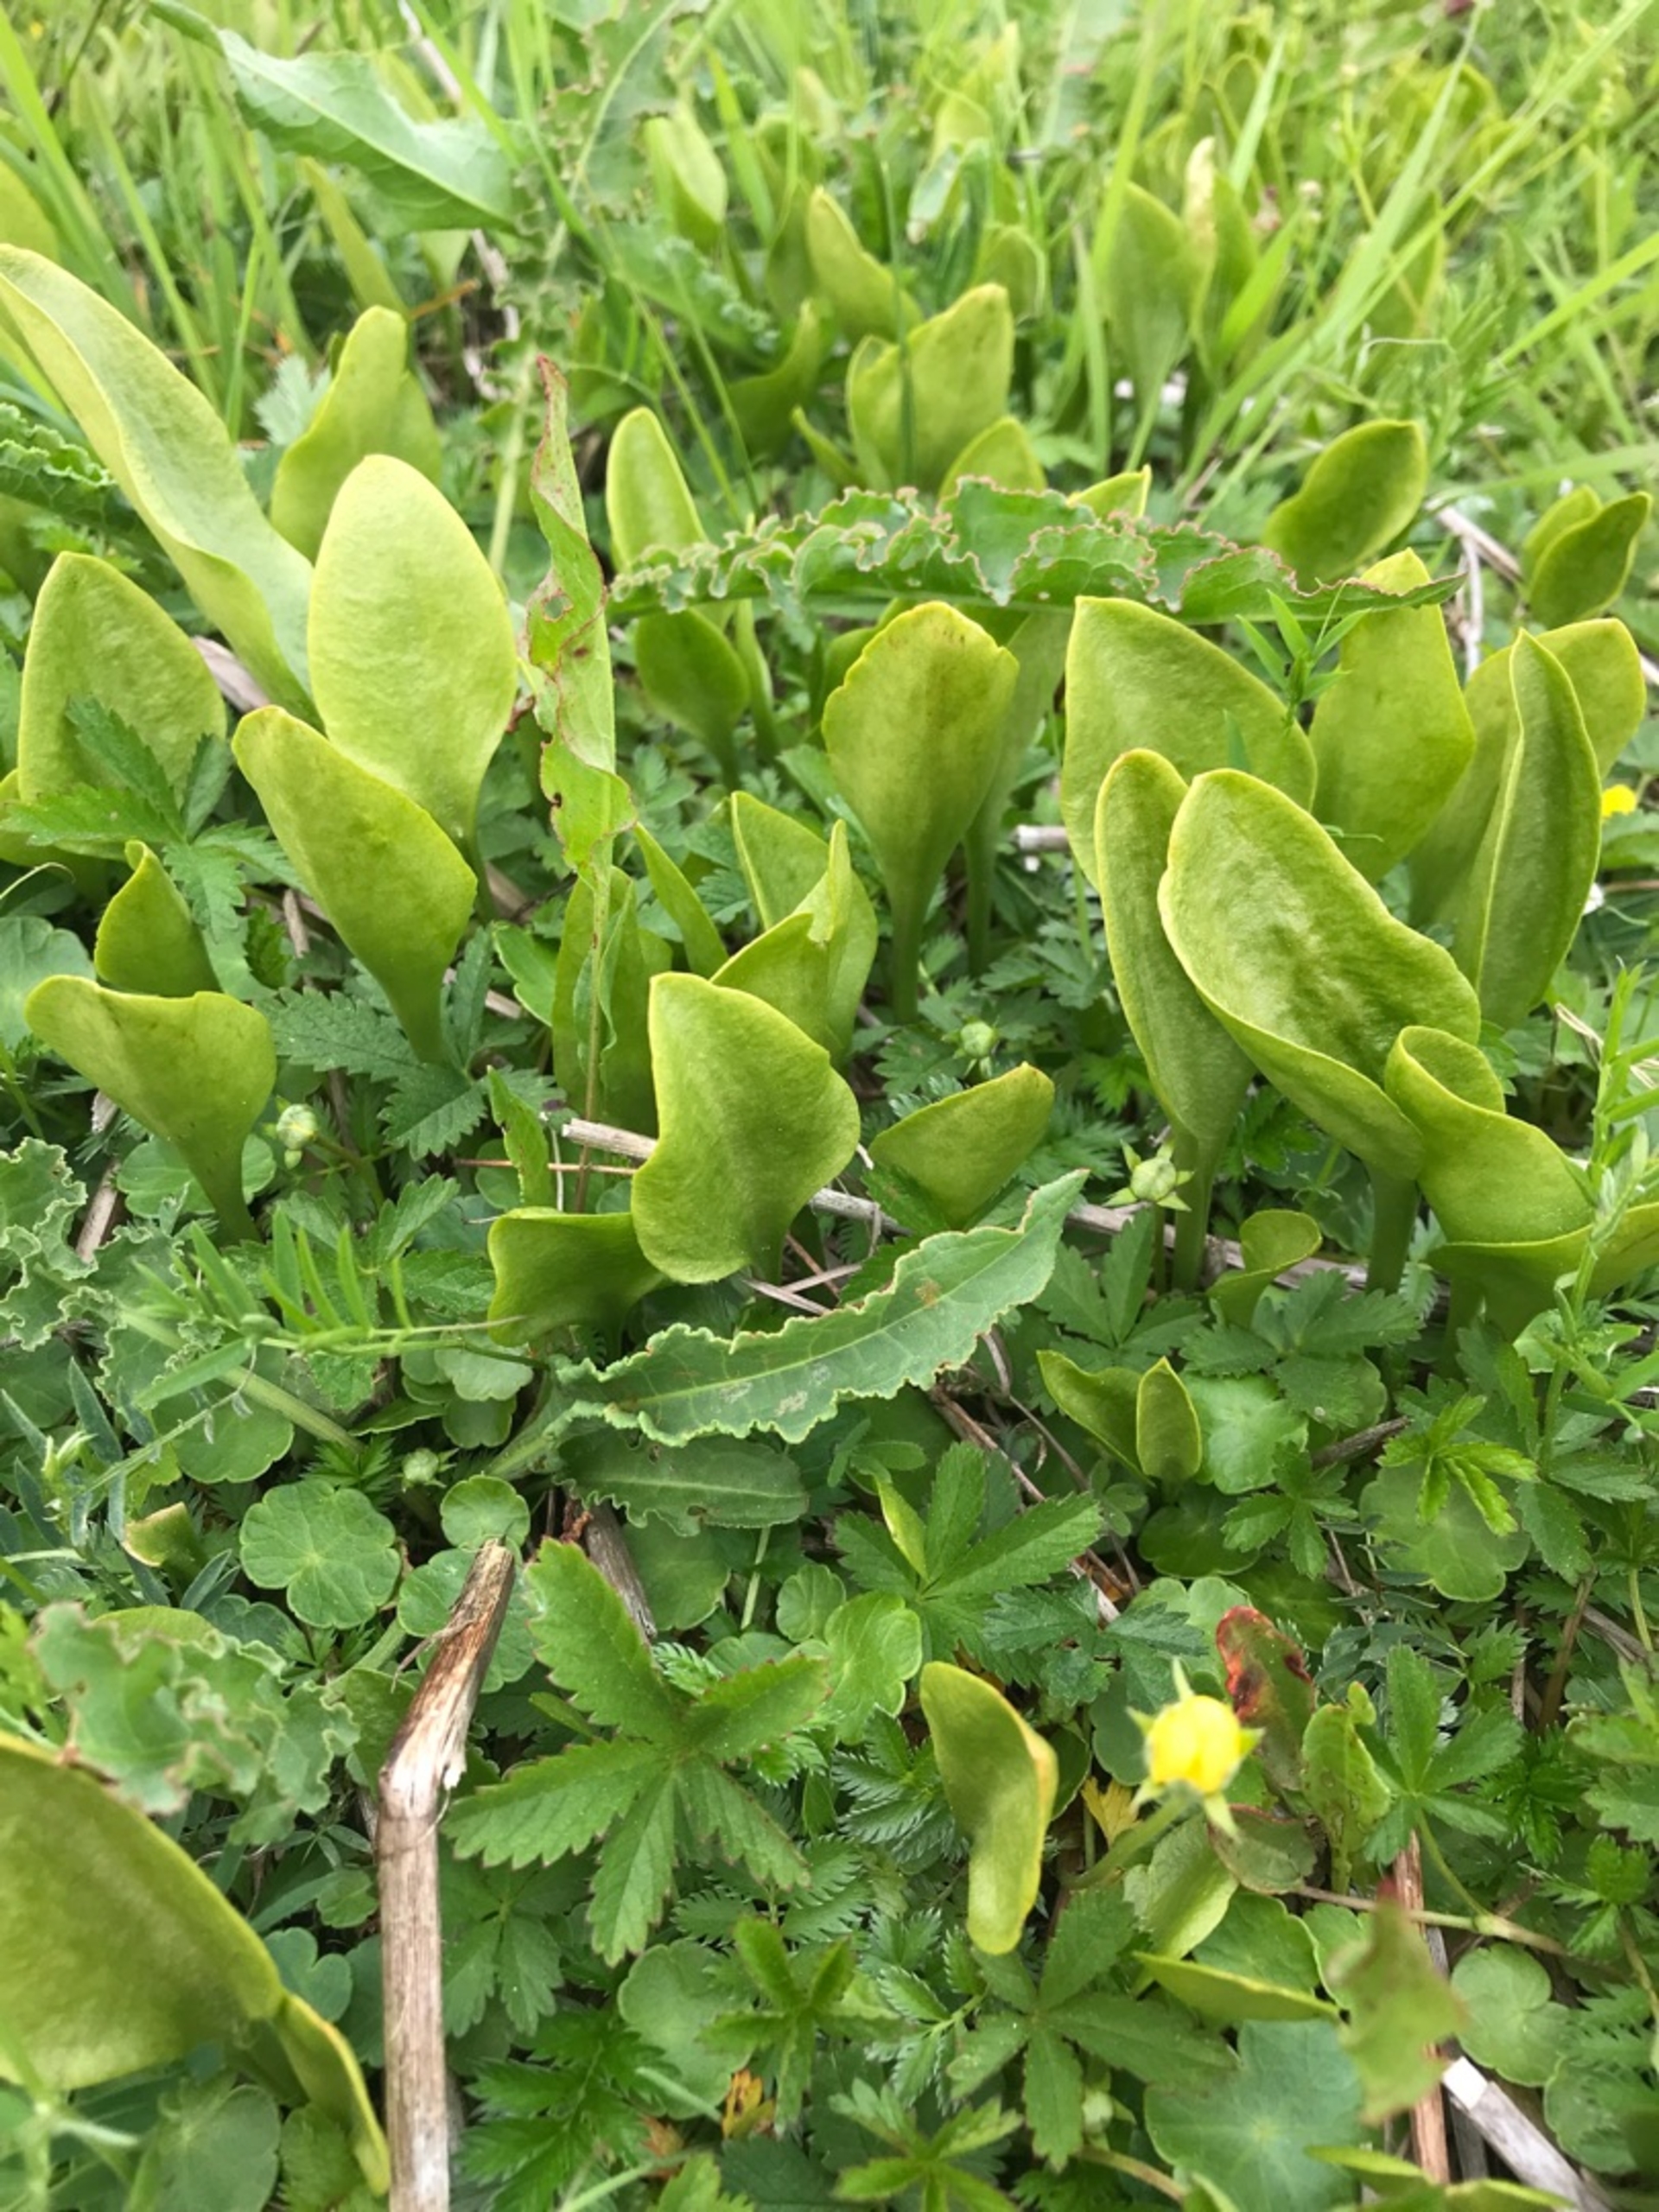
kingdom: Plantae
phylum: Tracheophyta
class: Polypodiopsida
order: Ophioglossales
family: Ophioglossaceae
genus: Ophioglossum
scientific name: Ophioglossum vulgatum
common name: Slangetunge
